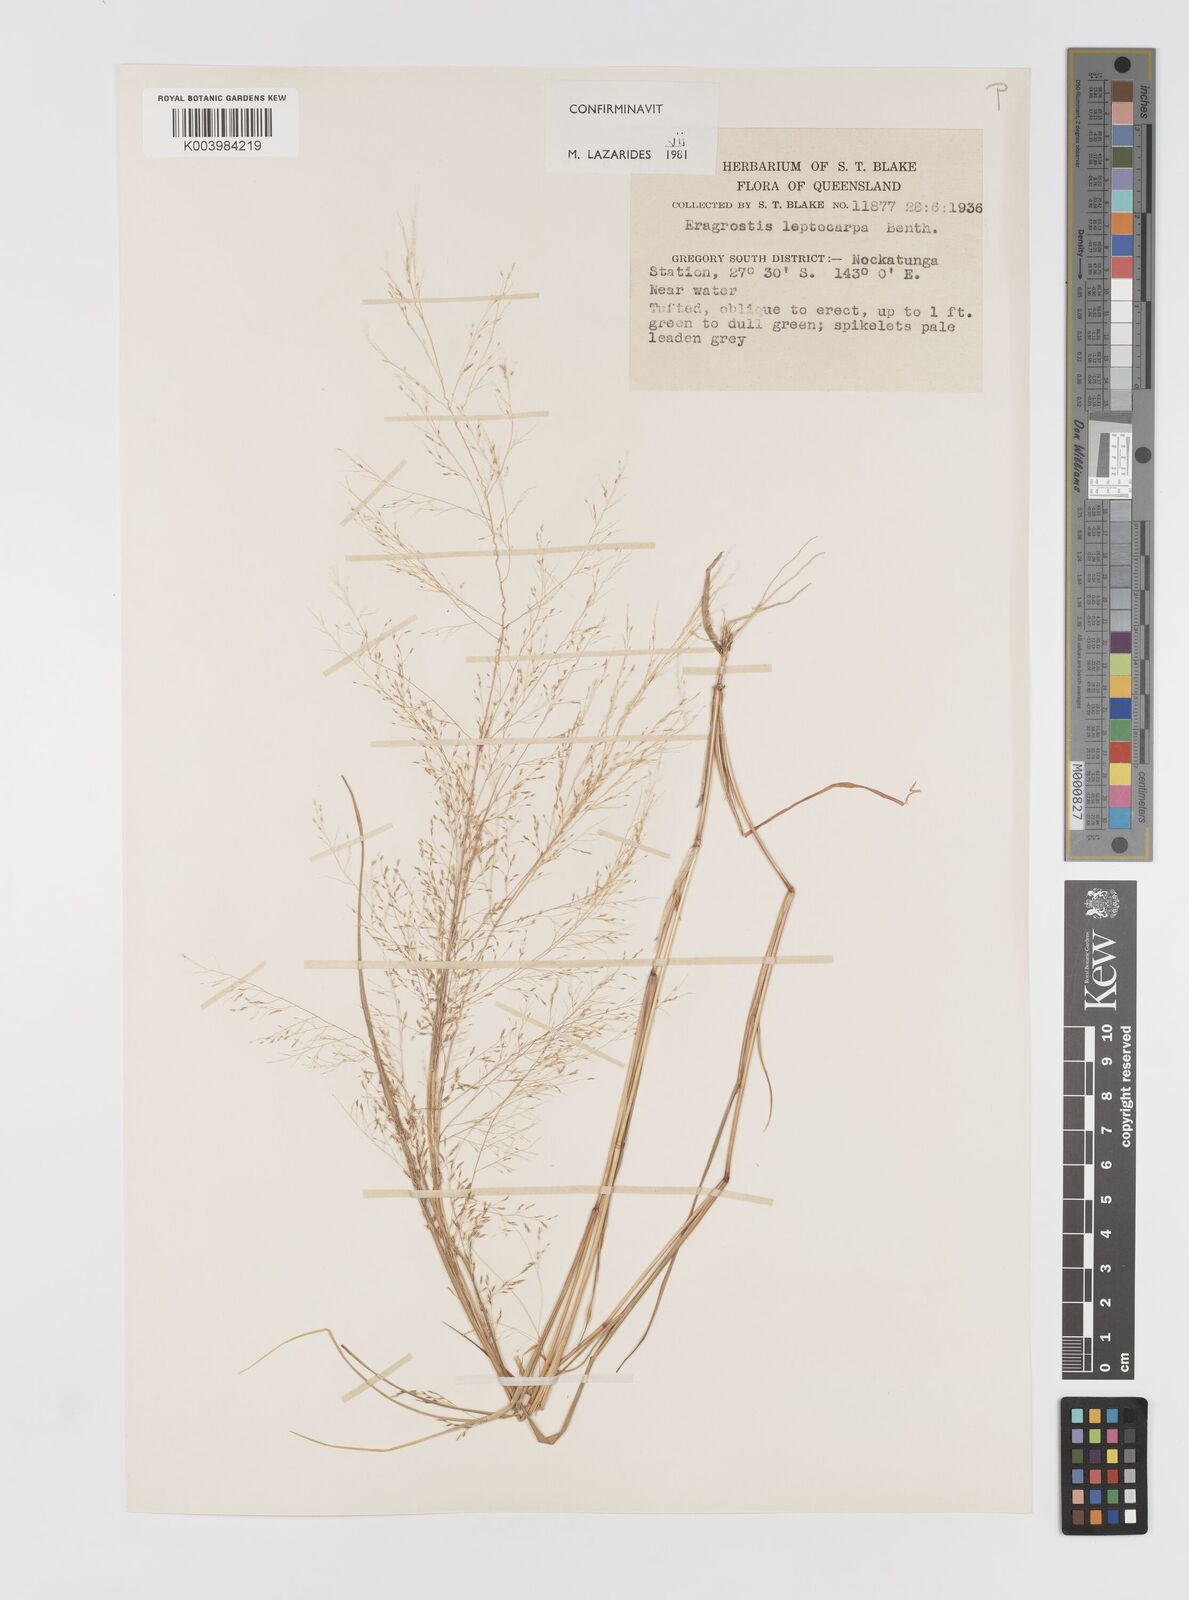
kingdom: Plantae
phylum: Tracheophyta
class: Liliopsida
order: Poales
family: Poaceae
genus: Eragrostis
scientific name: Eragrostis leptocarpa
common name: Drooping love grass
